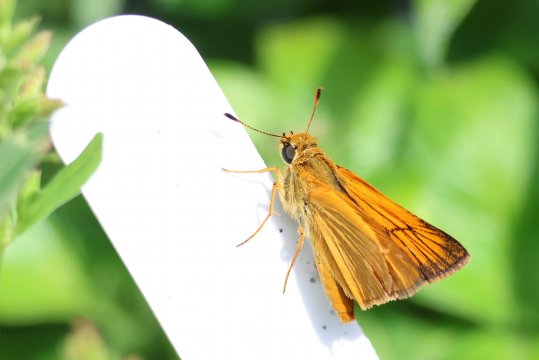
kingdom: Animalia
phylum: Arthropoda
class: Insecta
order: Lepidoptera
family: Hesperiidae
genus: Atrytone
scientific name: Atrytone delaware
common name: Delaware Skipper
